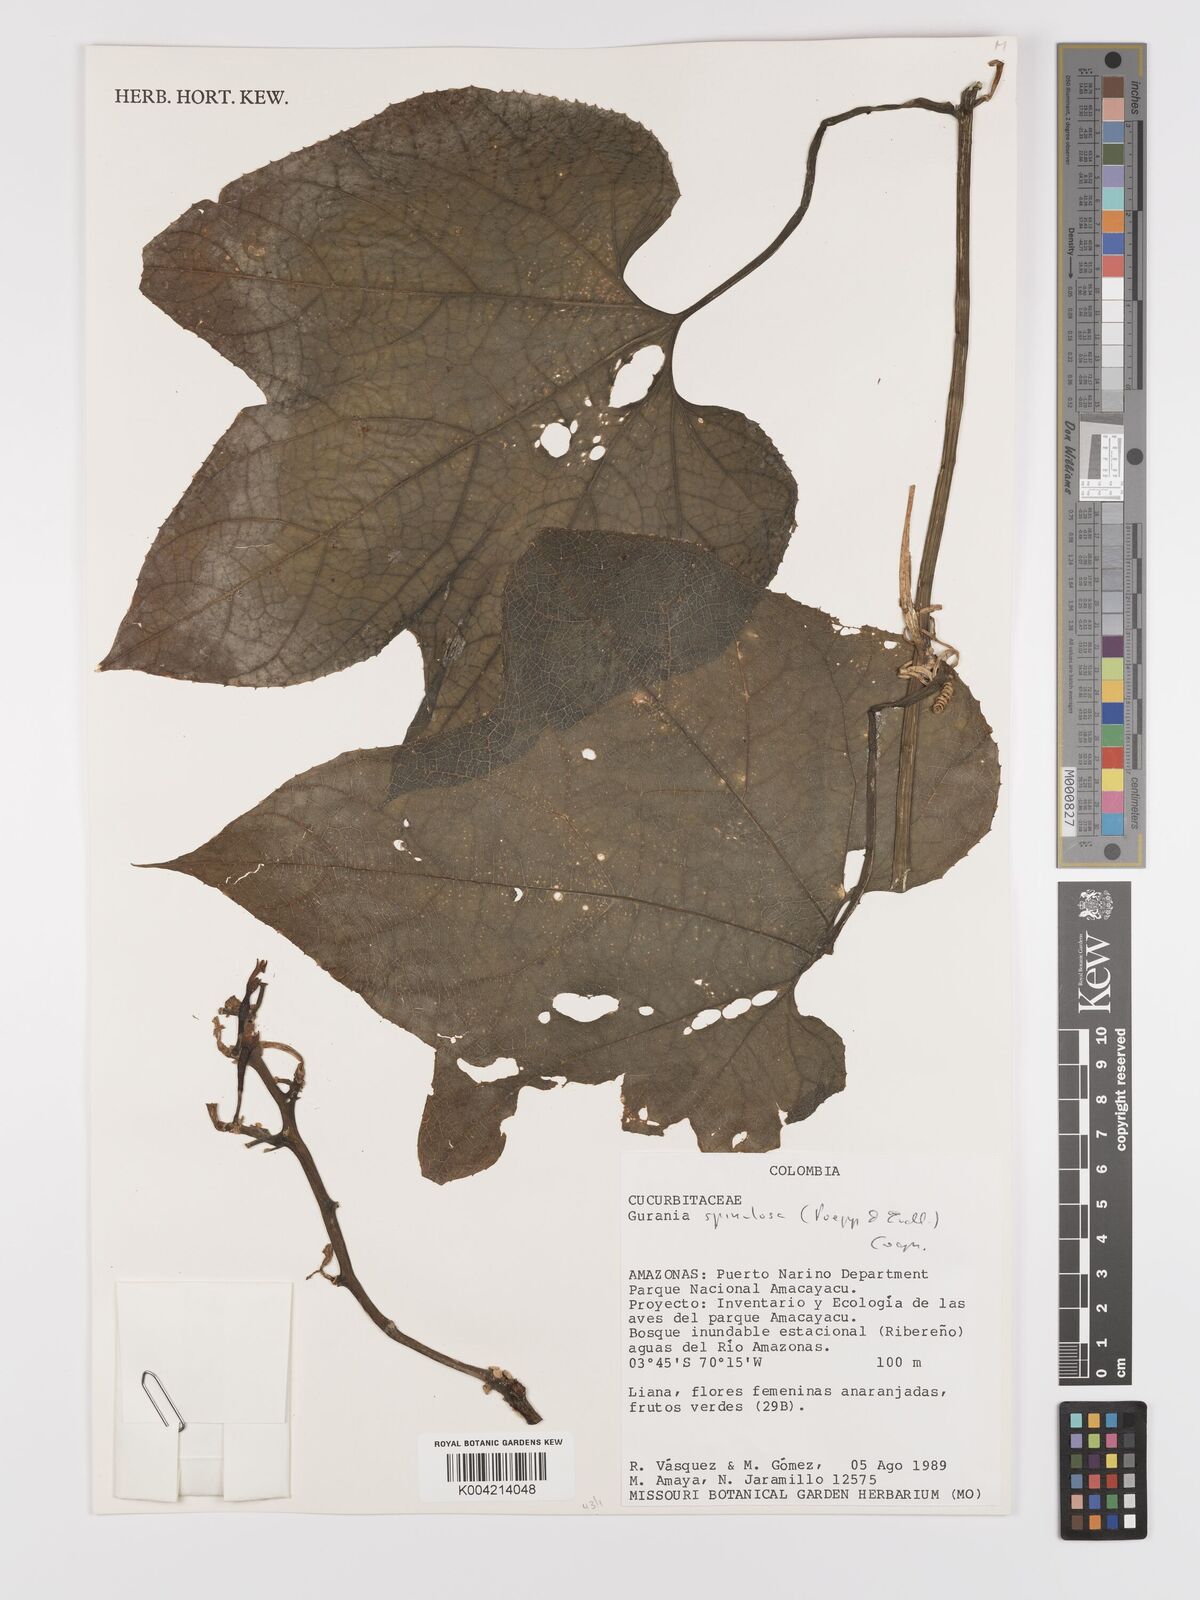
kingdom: Plantae
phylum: Tracheophyta
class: Magnoliopsida
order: Cucurbitales
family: Cucurbitaceae
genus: Gurania
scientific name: Gurania lobata
